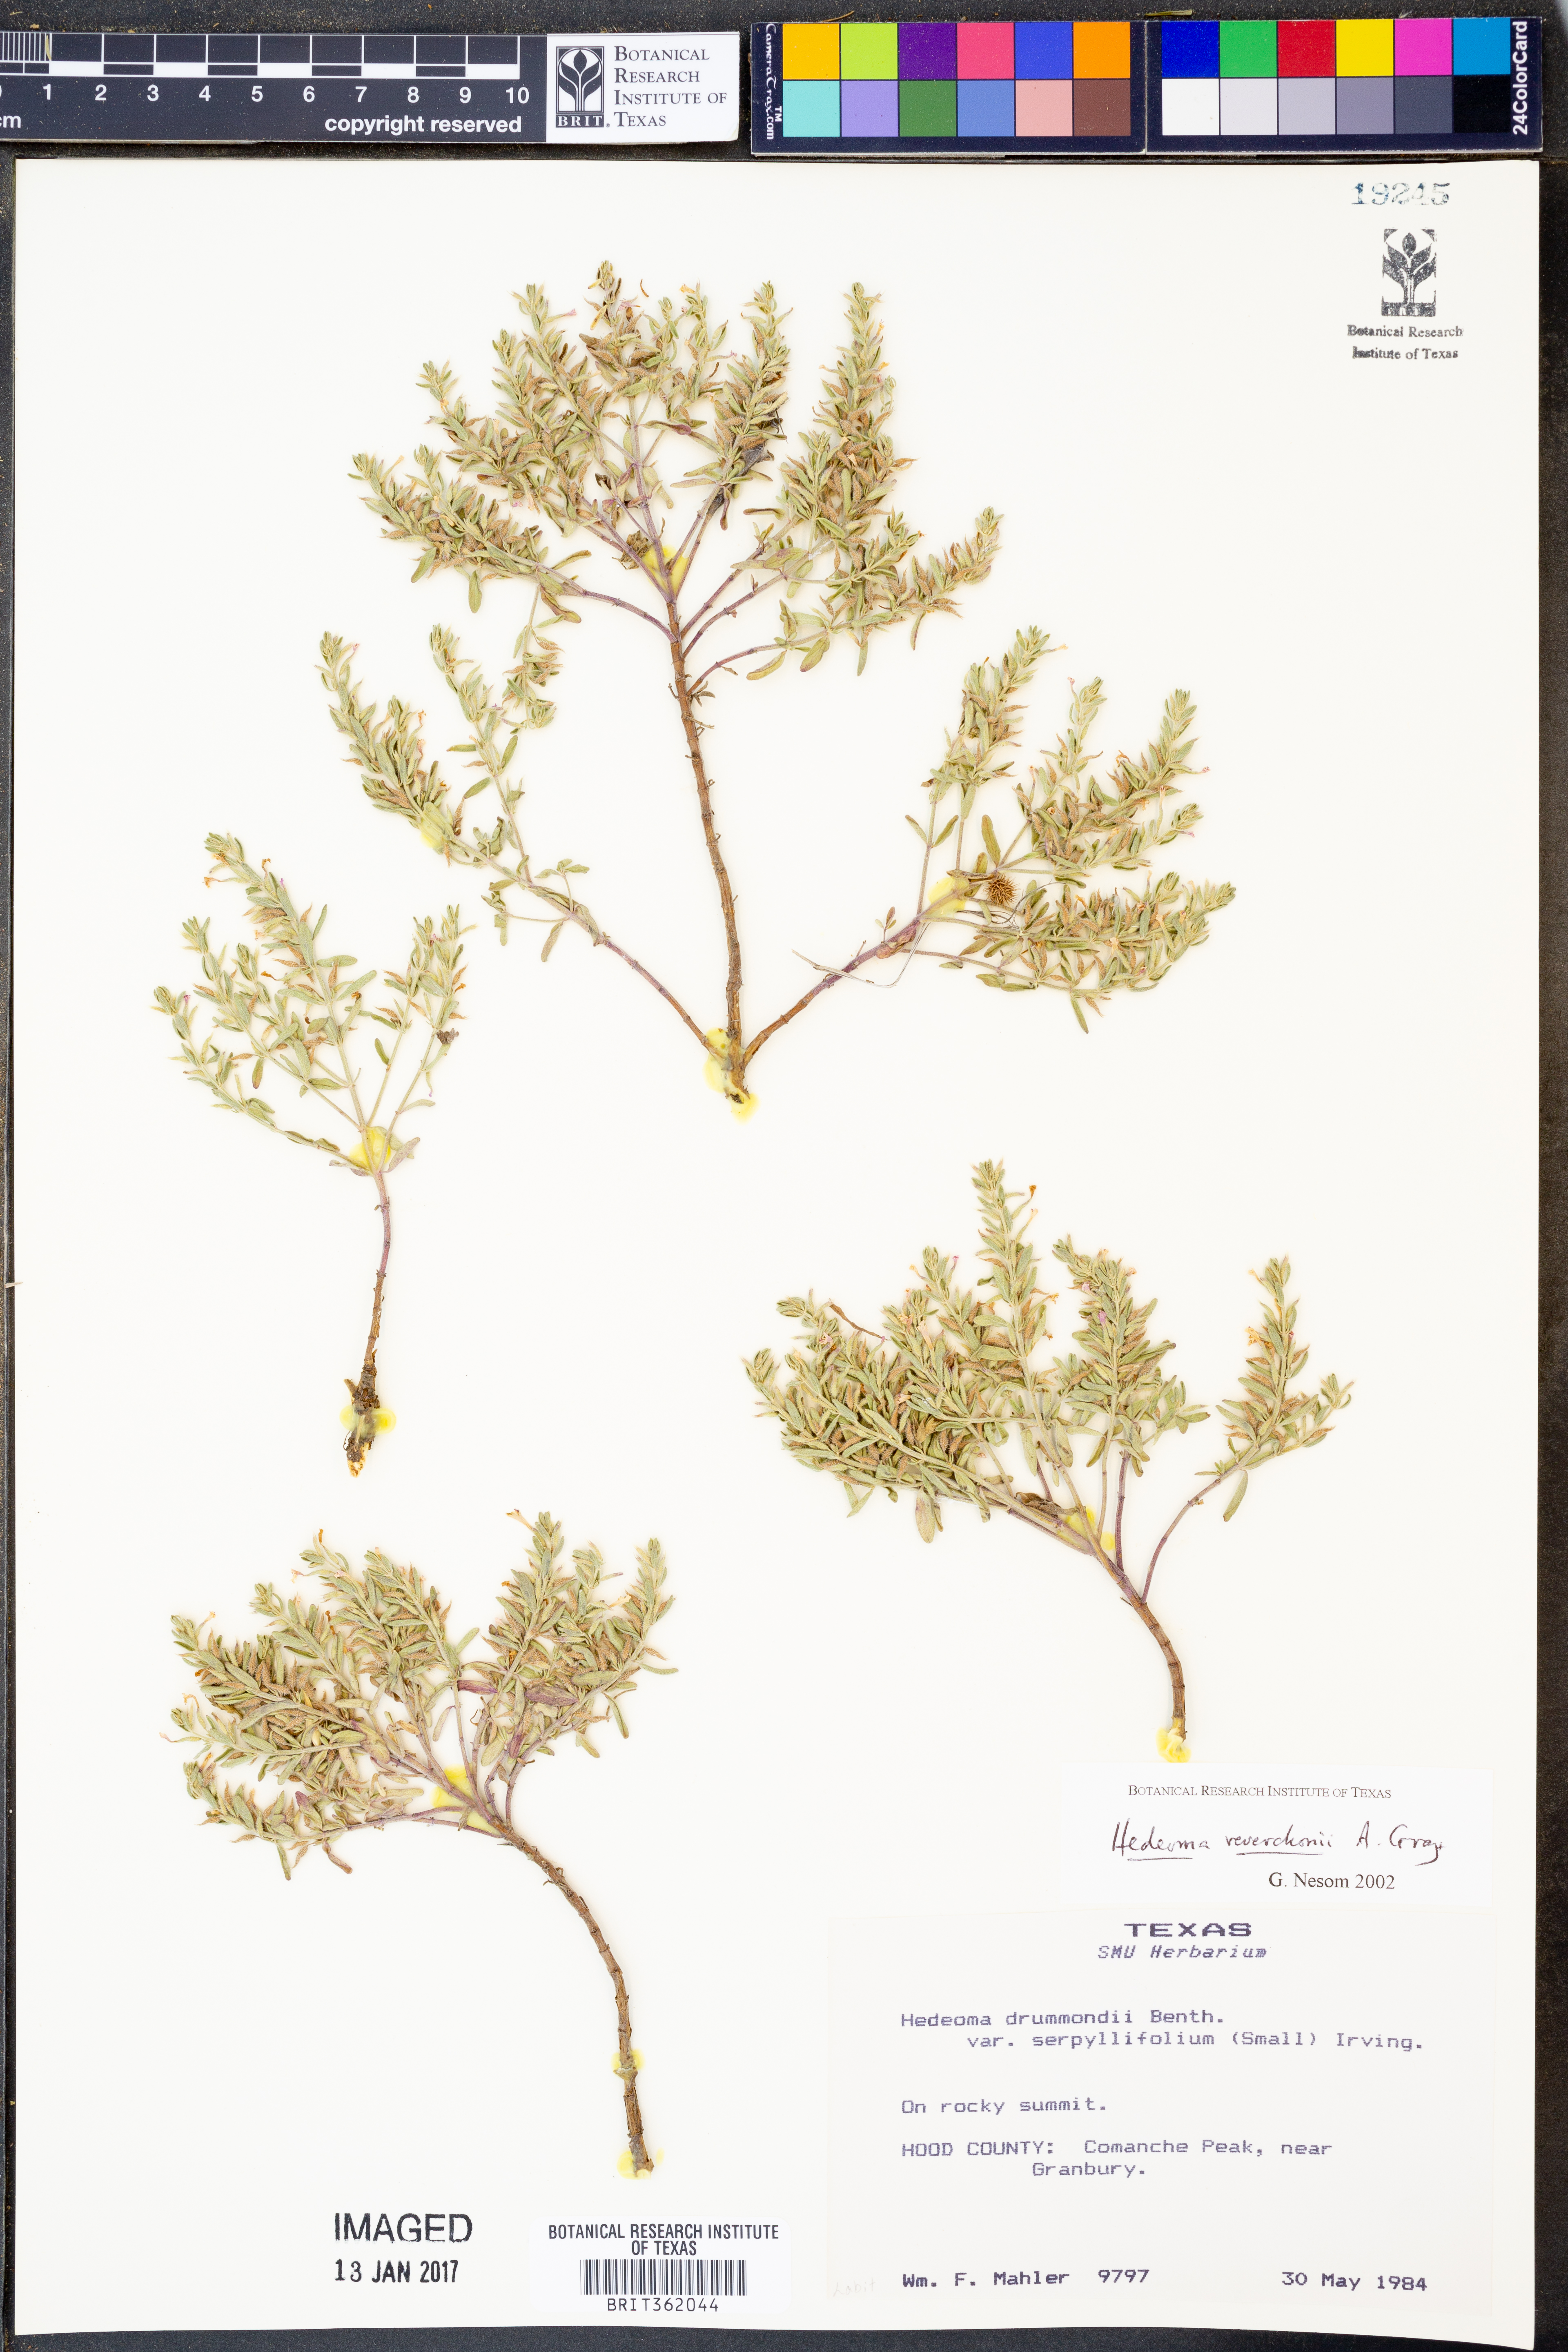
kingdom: Plantae
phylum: Tracheophyta
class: Magnoliopsida
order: Lamiales
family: Lamiaceae
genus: Hedeoma
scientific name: Hedeoma reverchonii
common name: Reverchon's false penny-royal
